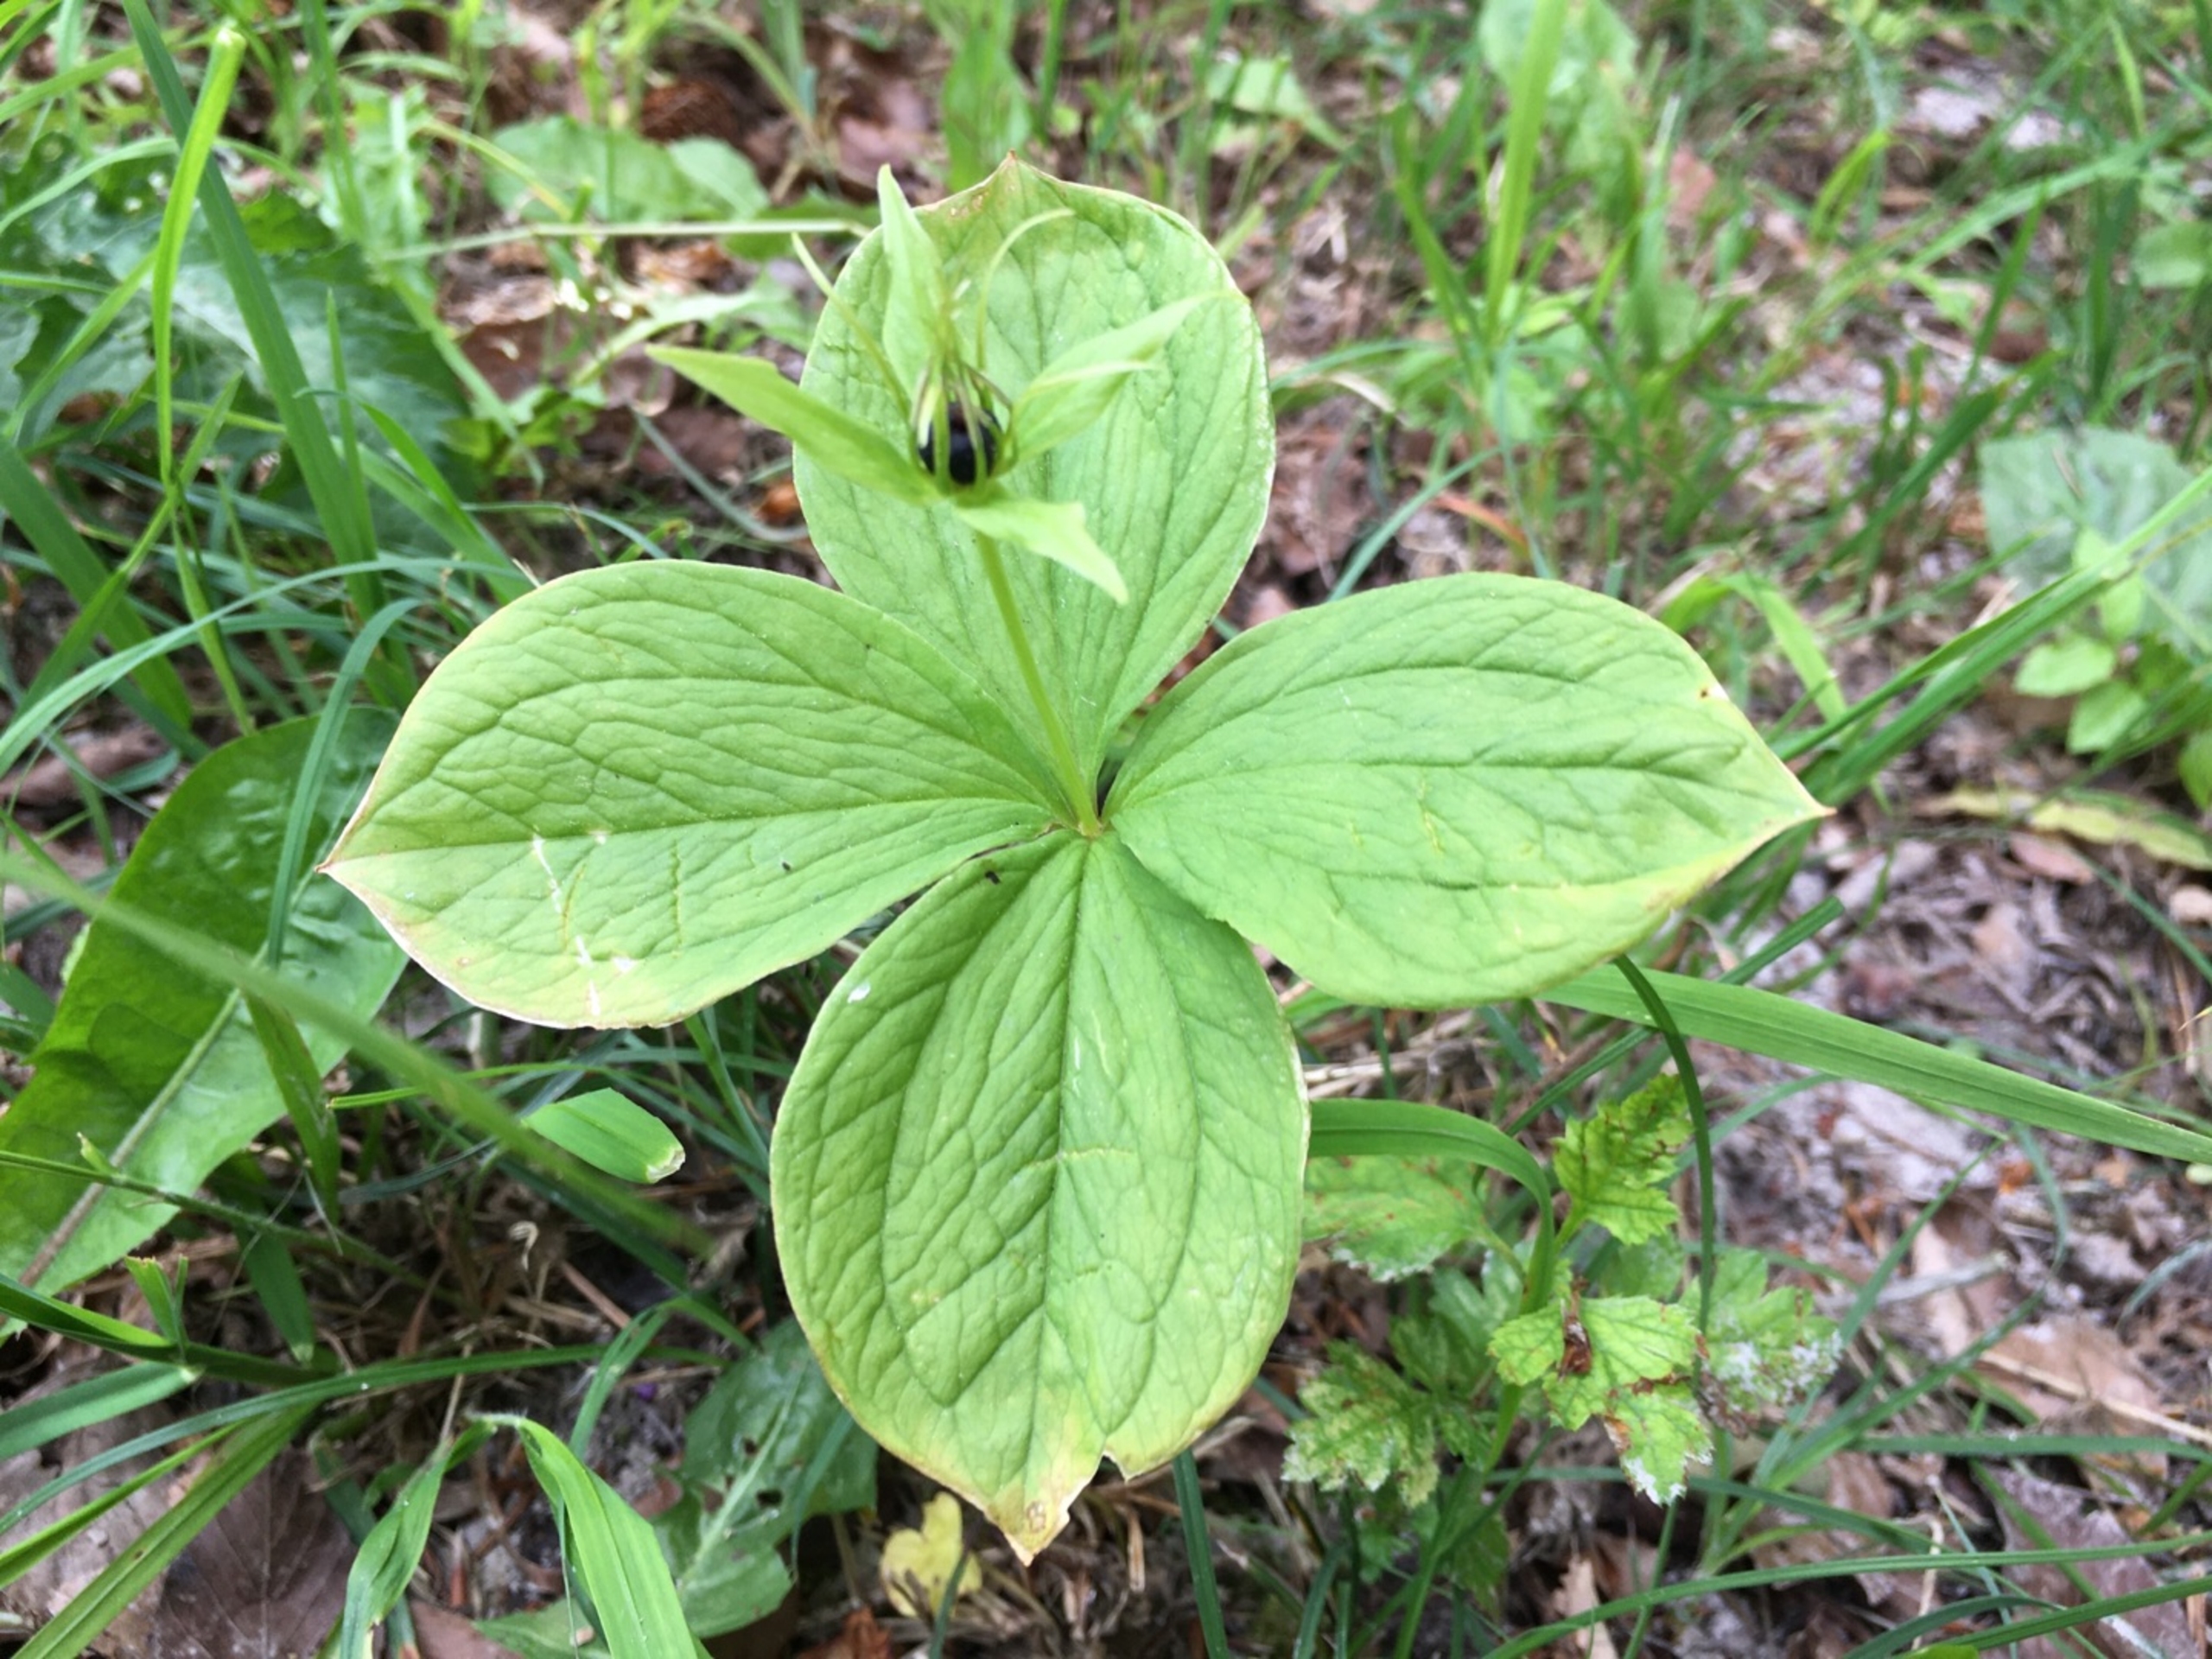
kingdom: Plantae
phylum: Tracheophyta
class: Liliopsida
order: Liliales
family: Melanthiaceae
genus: Paris
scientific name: Paris quadrifolia
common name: Firblad
